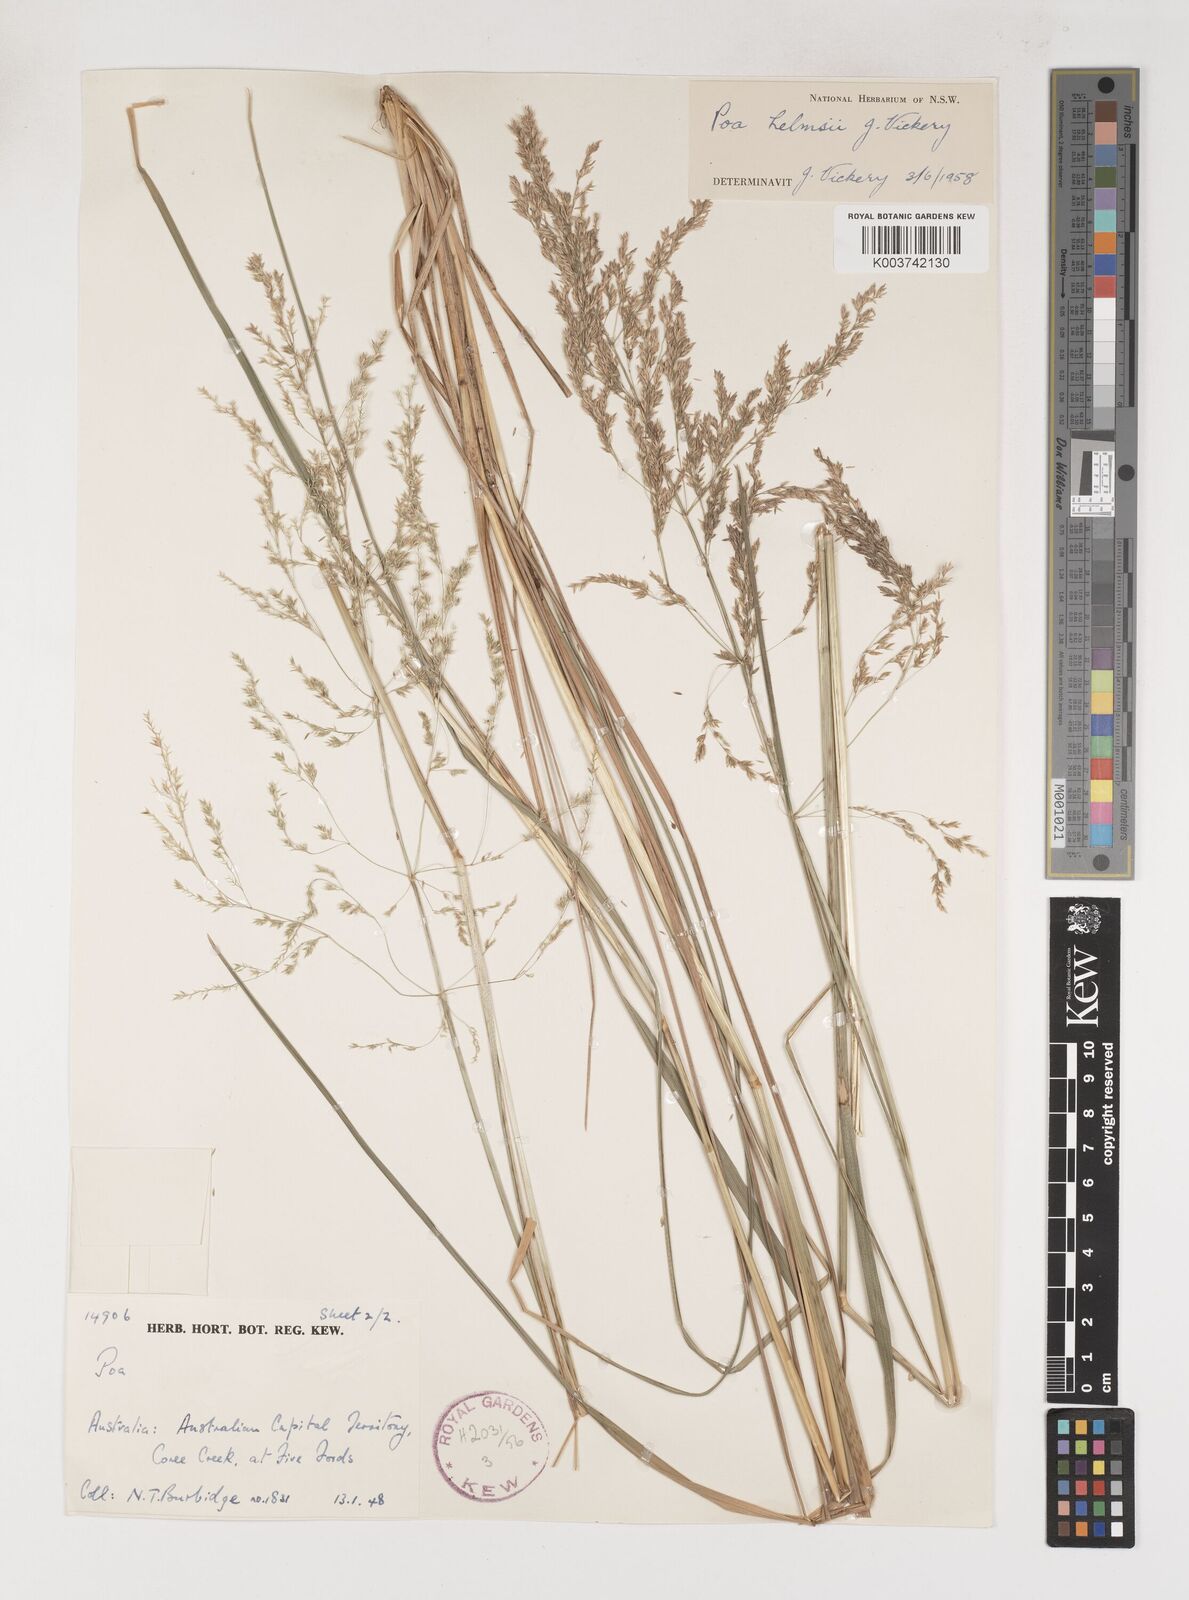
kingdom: Plantae
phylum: Tracheophyta
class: Liliopsida
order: Poales
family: Poaceae
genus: Poa
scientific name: Poa helmsii
